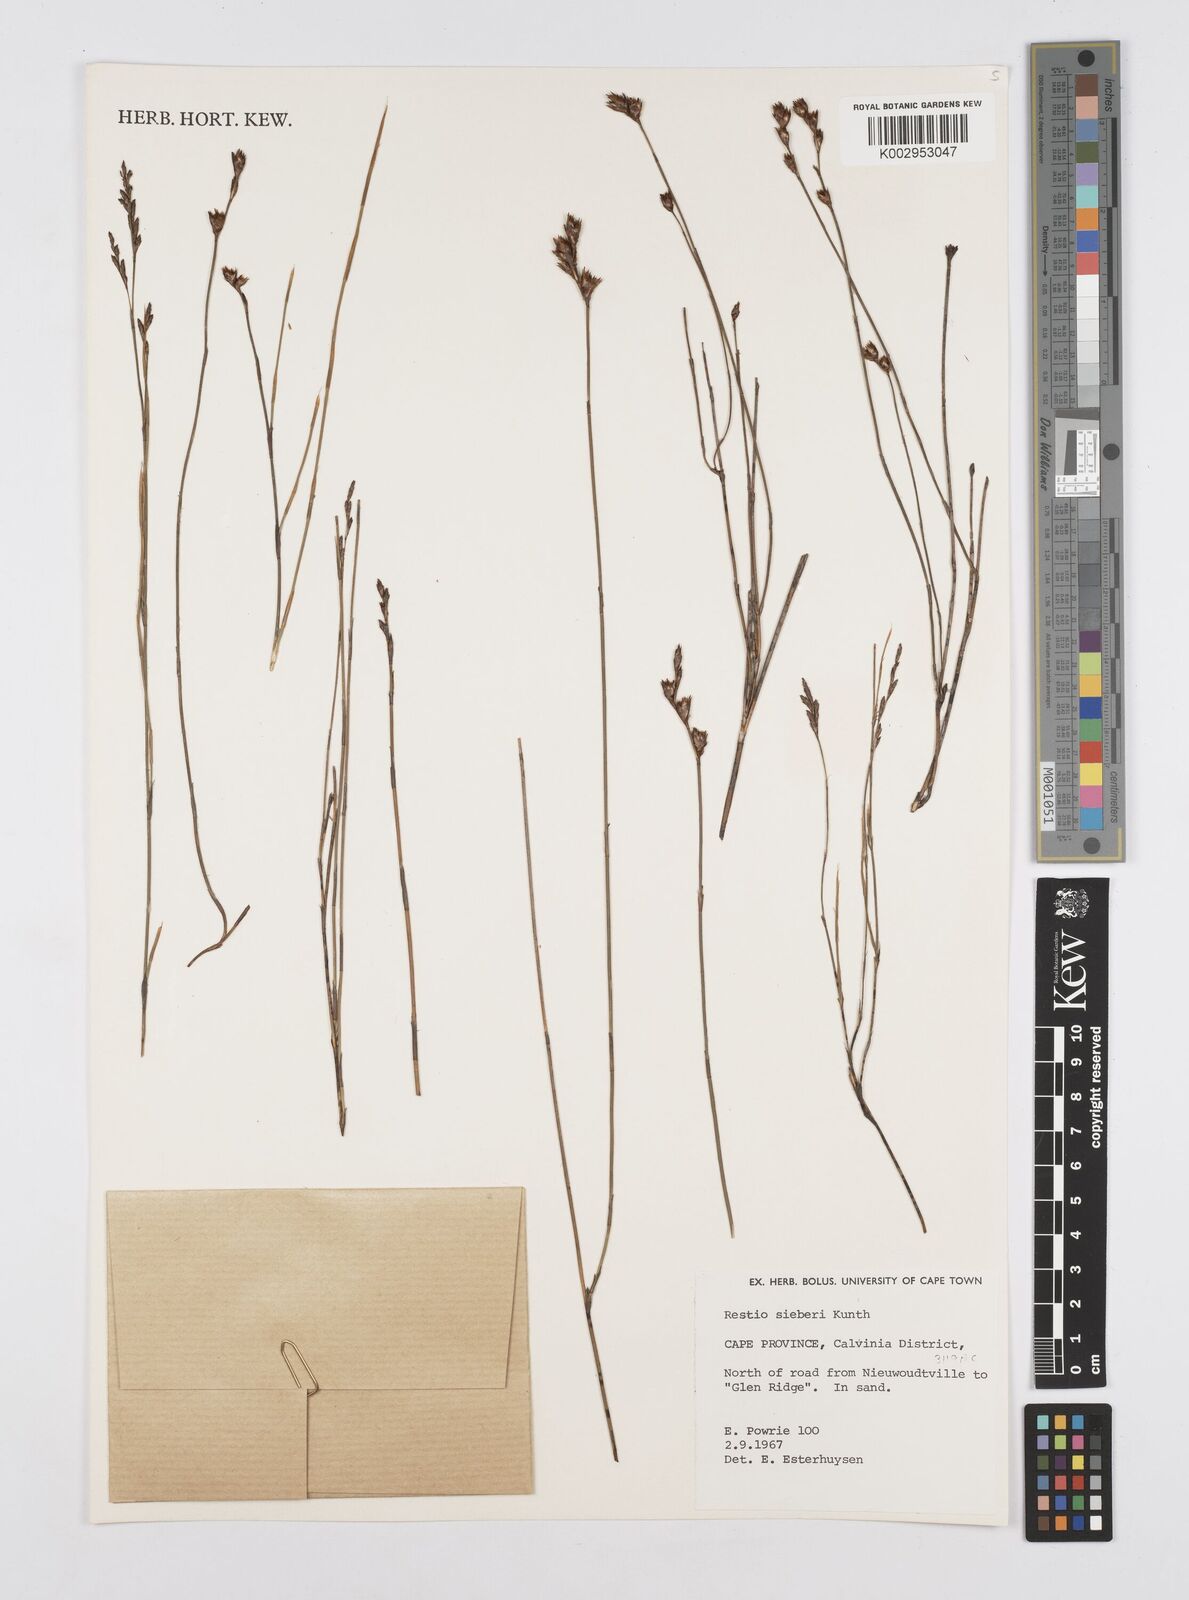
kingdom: Plantae
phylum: Tracheophyta
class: Liliopsida
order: Poales
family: Restionaceae
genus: Restio
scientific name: Restio sieberi
